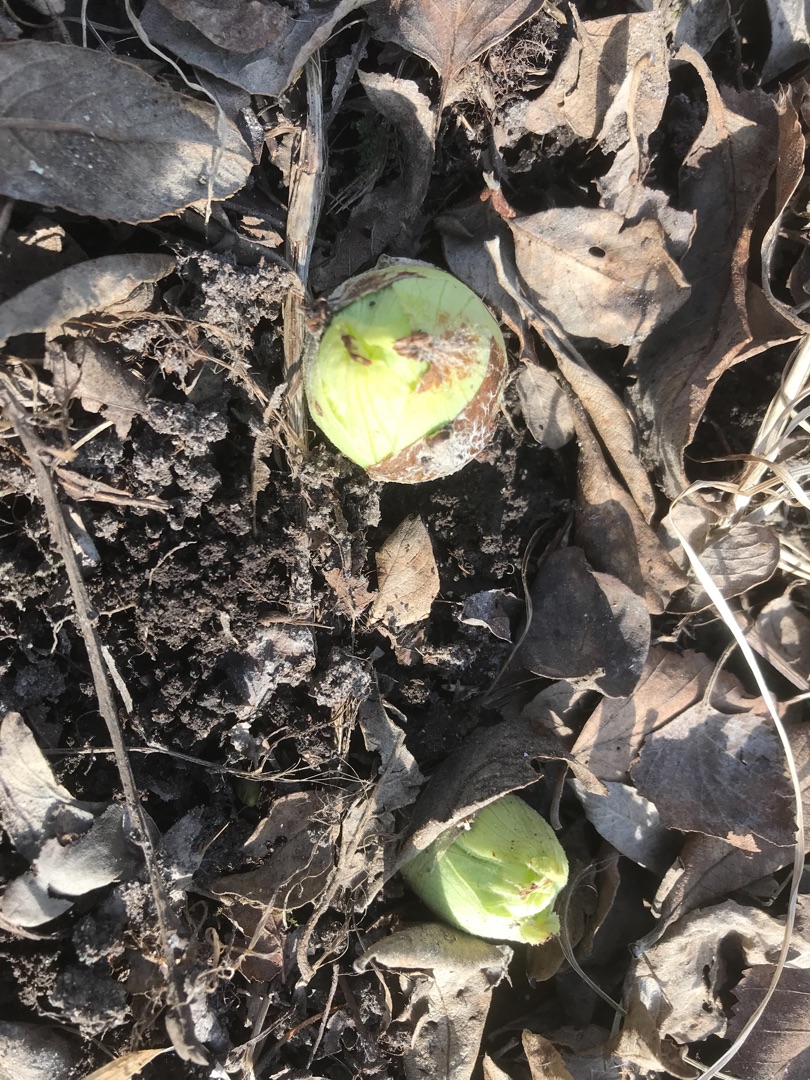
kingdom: Plantae
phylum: Tracheophyta
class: Magnoliopsida
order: Asterales
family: Asteraceae
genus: Petasites
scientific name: Petasites japonicus
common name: Japansk hestehov
